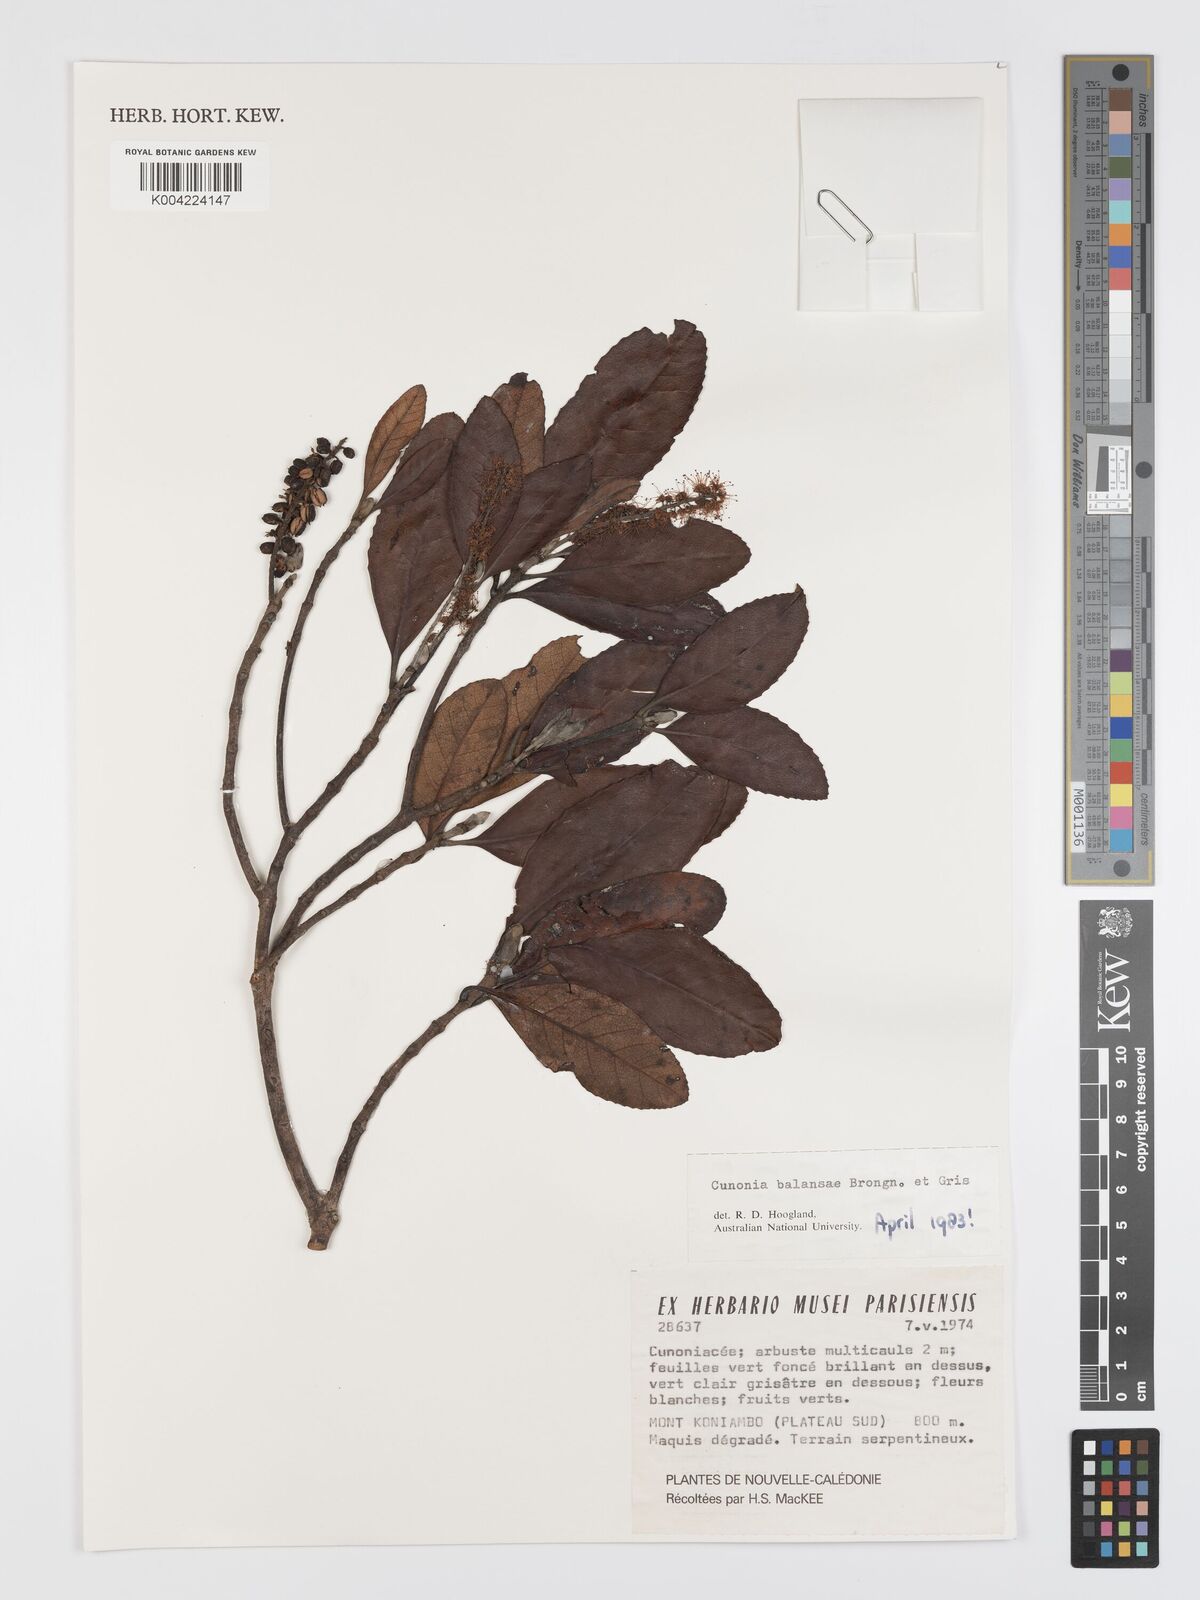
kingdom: Plantae
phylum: Tracheophyta
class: Magnoliopsida
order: Oxalidales
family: Cunoniaceae
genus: Cunonia
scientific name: Cunonia balansae
